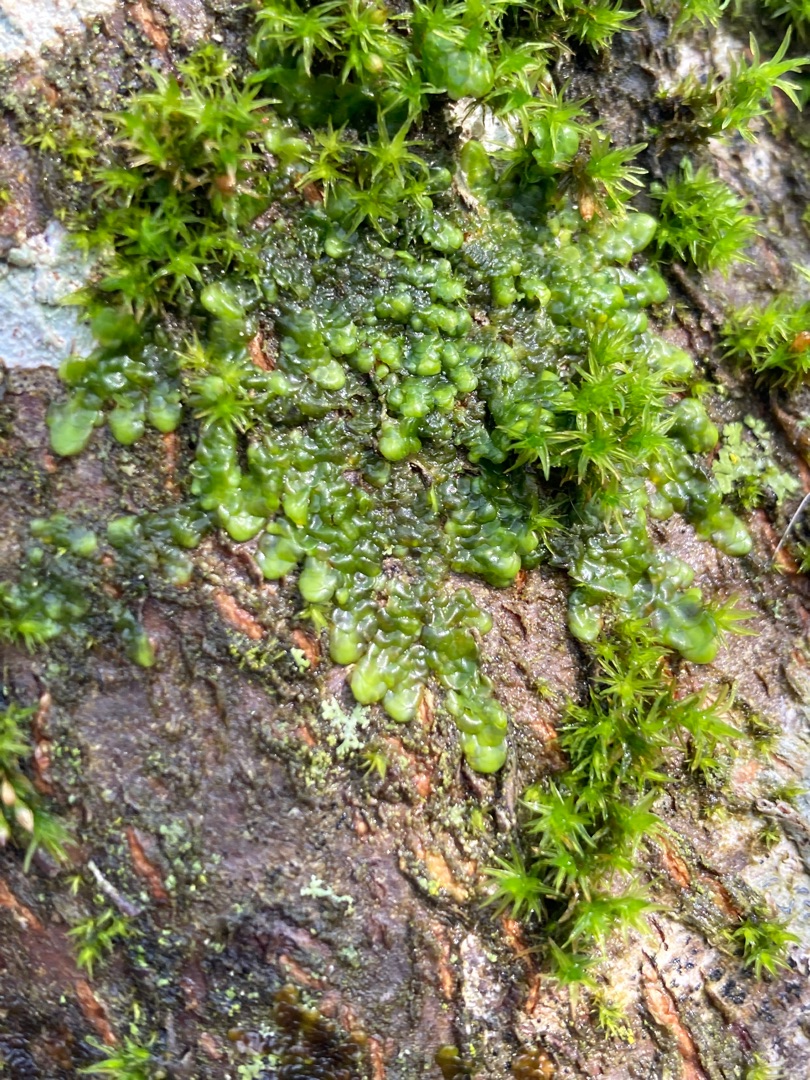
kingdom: Plantae
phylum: Marchantiophyta
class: Jungermanniopsida
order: Porellales
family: Radulaceae
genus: Radula
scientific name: Radula complanata
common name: Almindelig spartelmos
